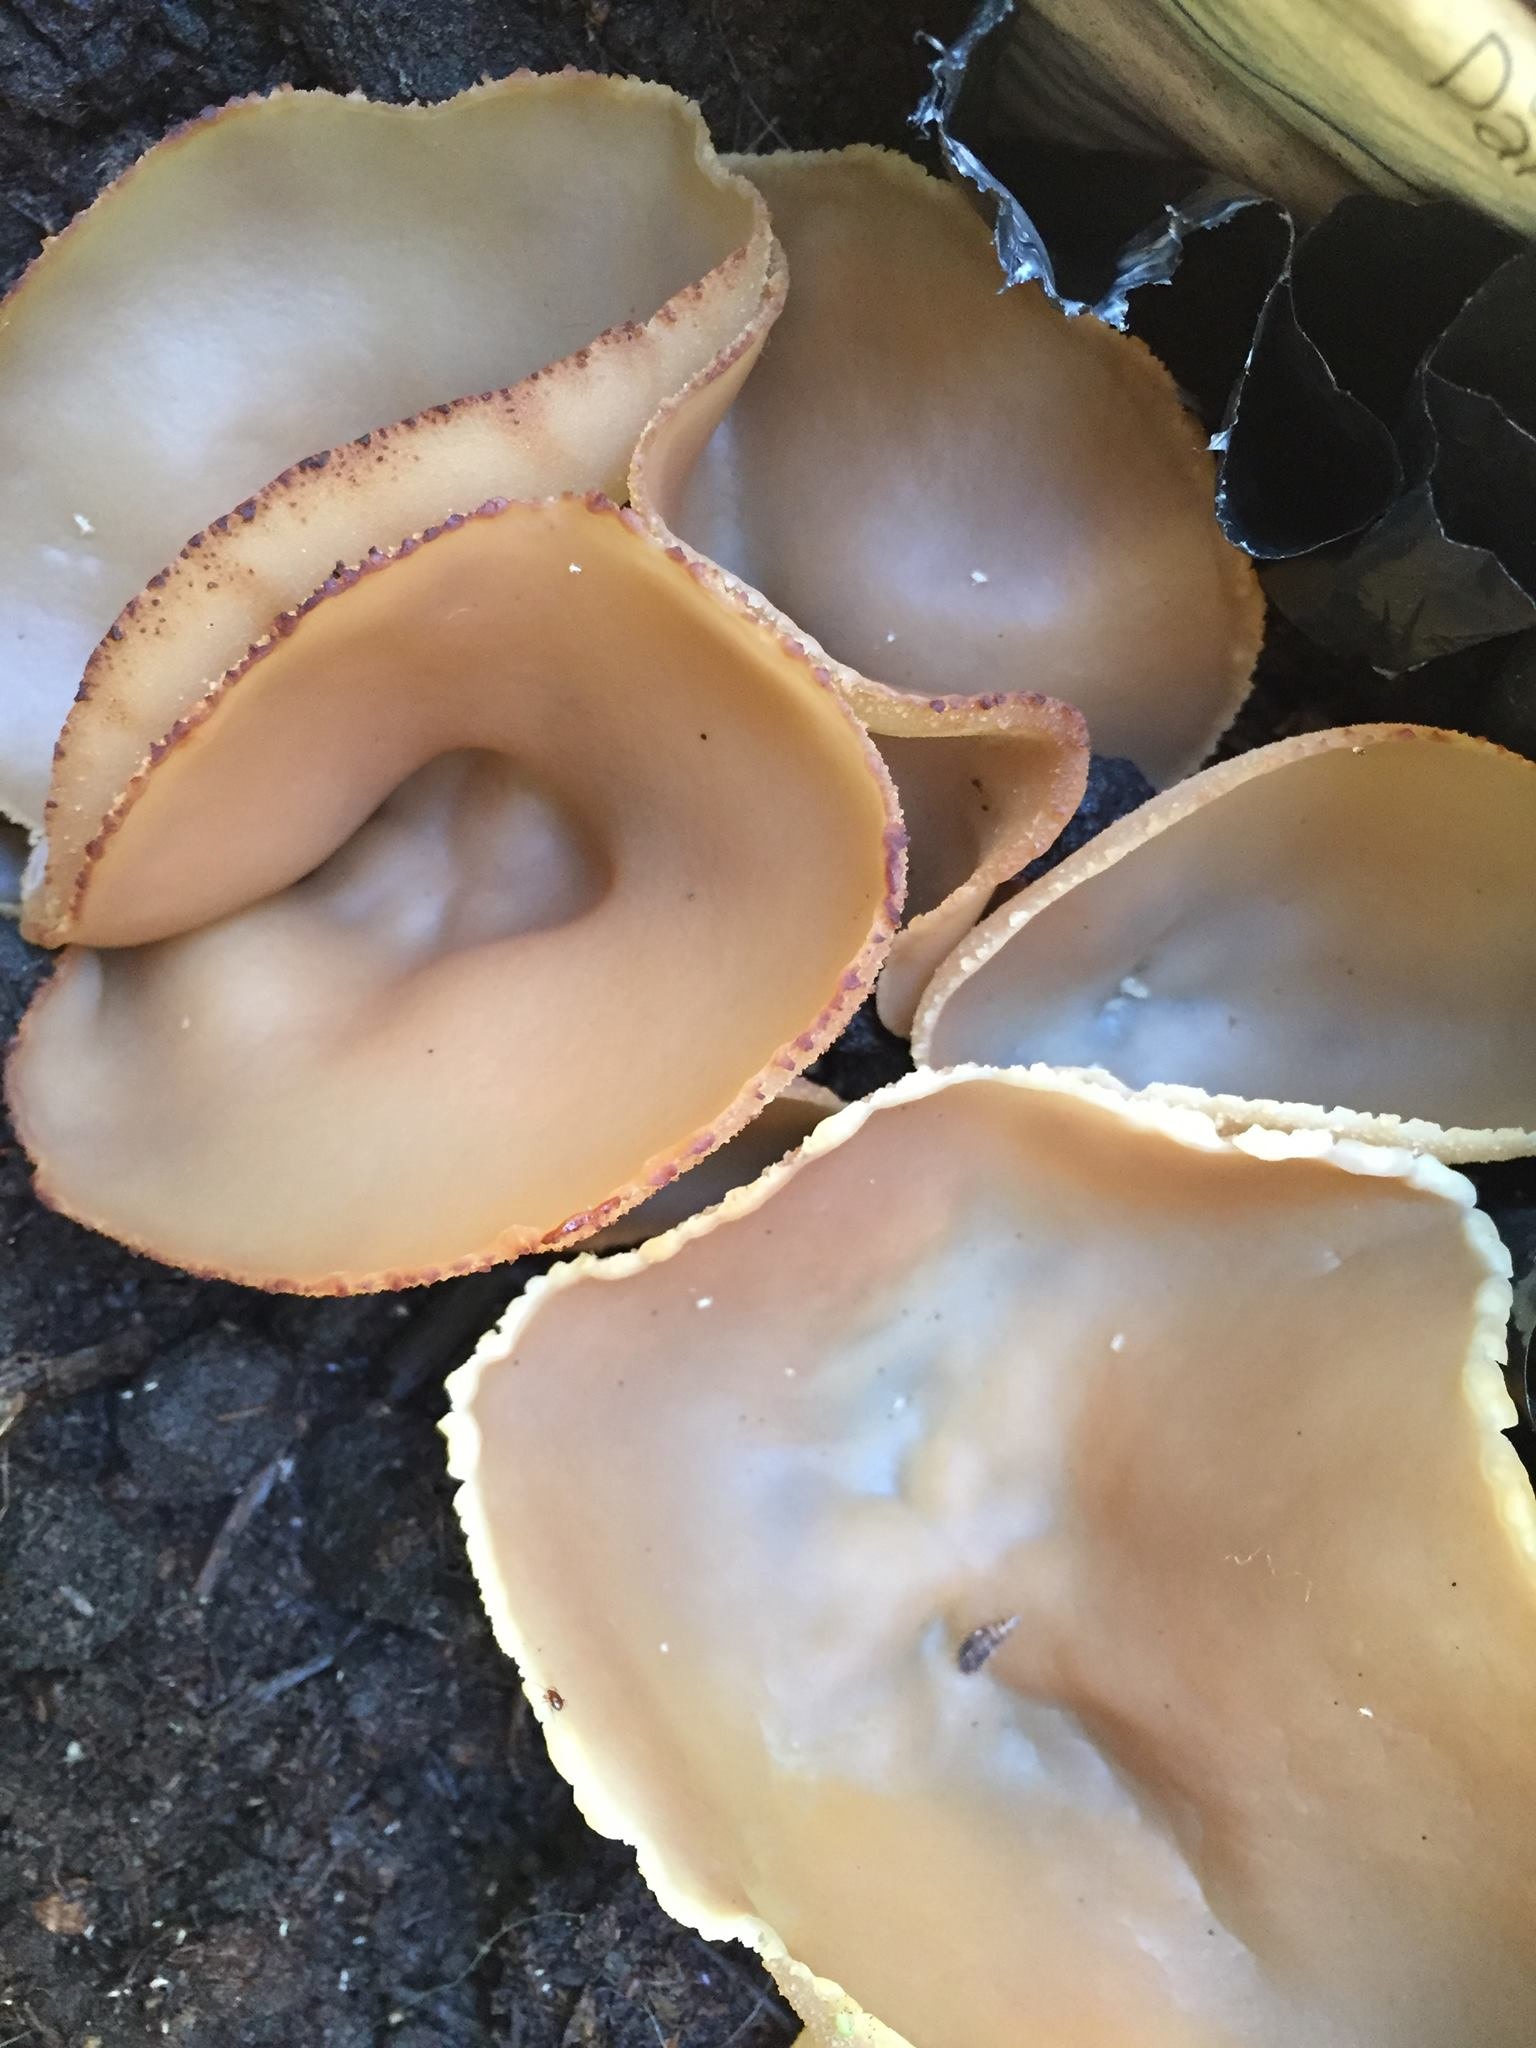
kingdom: Fungi
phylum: Ascomycota
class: Pezizomycetes
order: Pezizales
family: Pezizaceae
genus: Peziza
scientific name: Peziza vesiculosa
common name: Blistered cup
